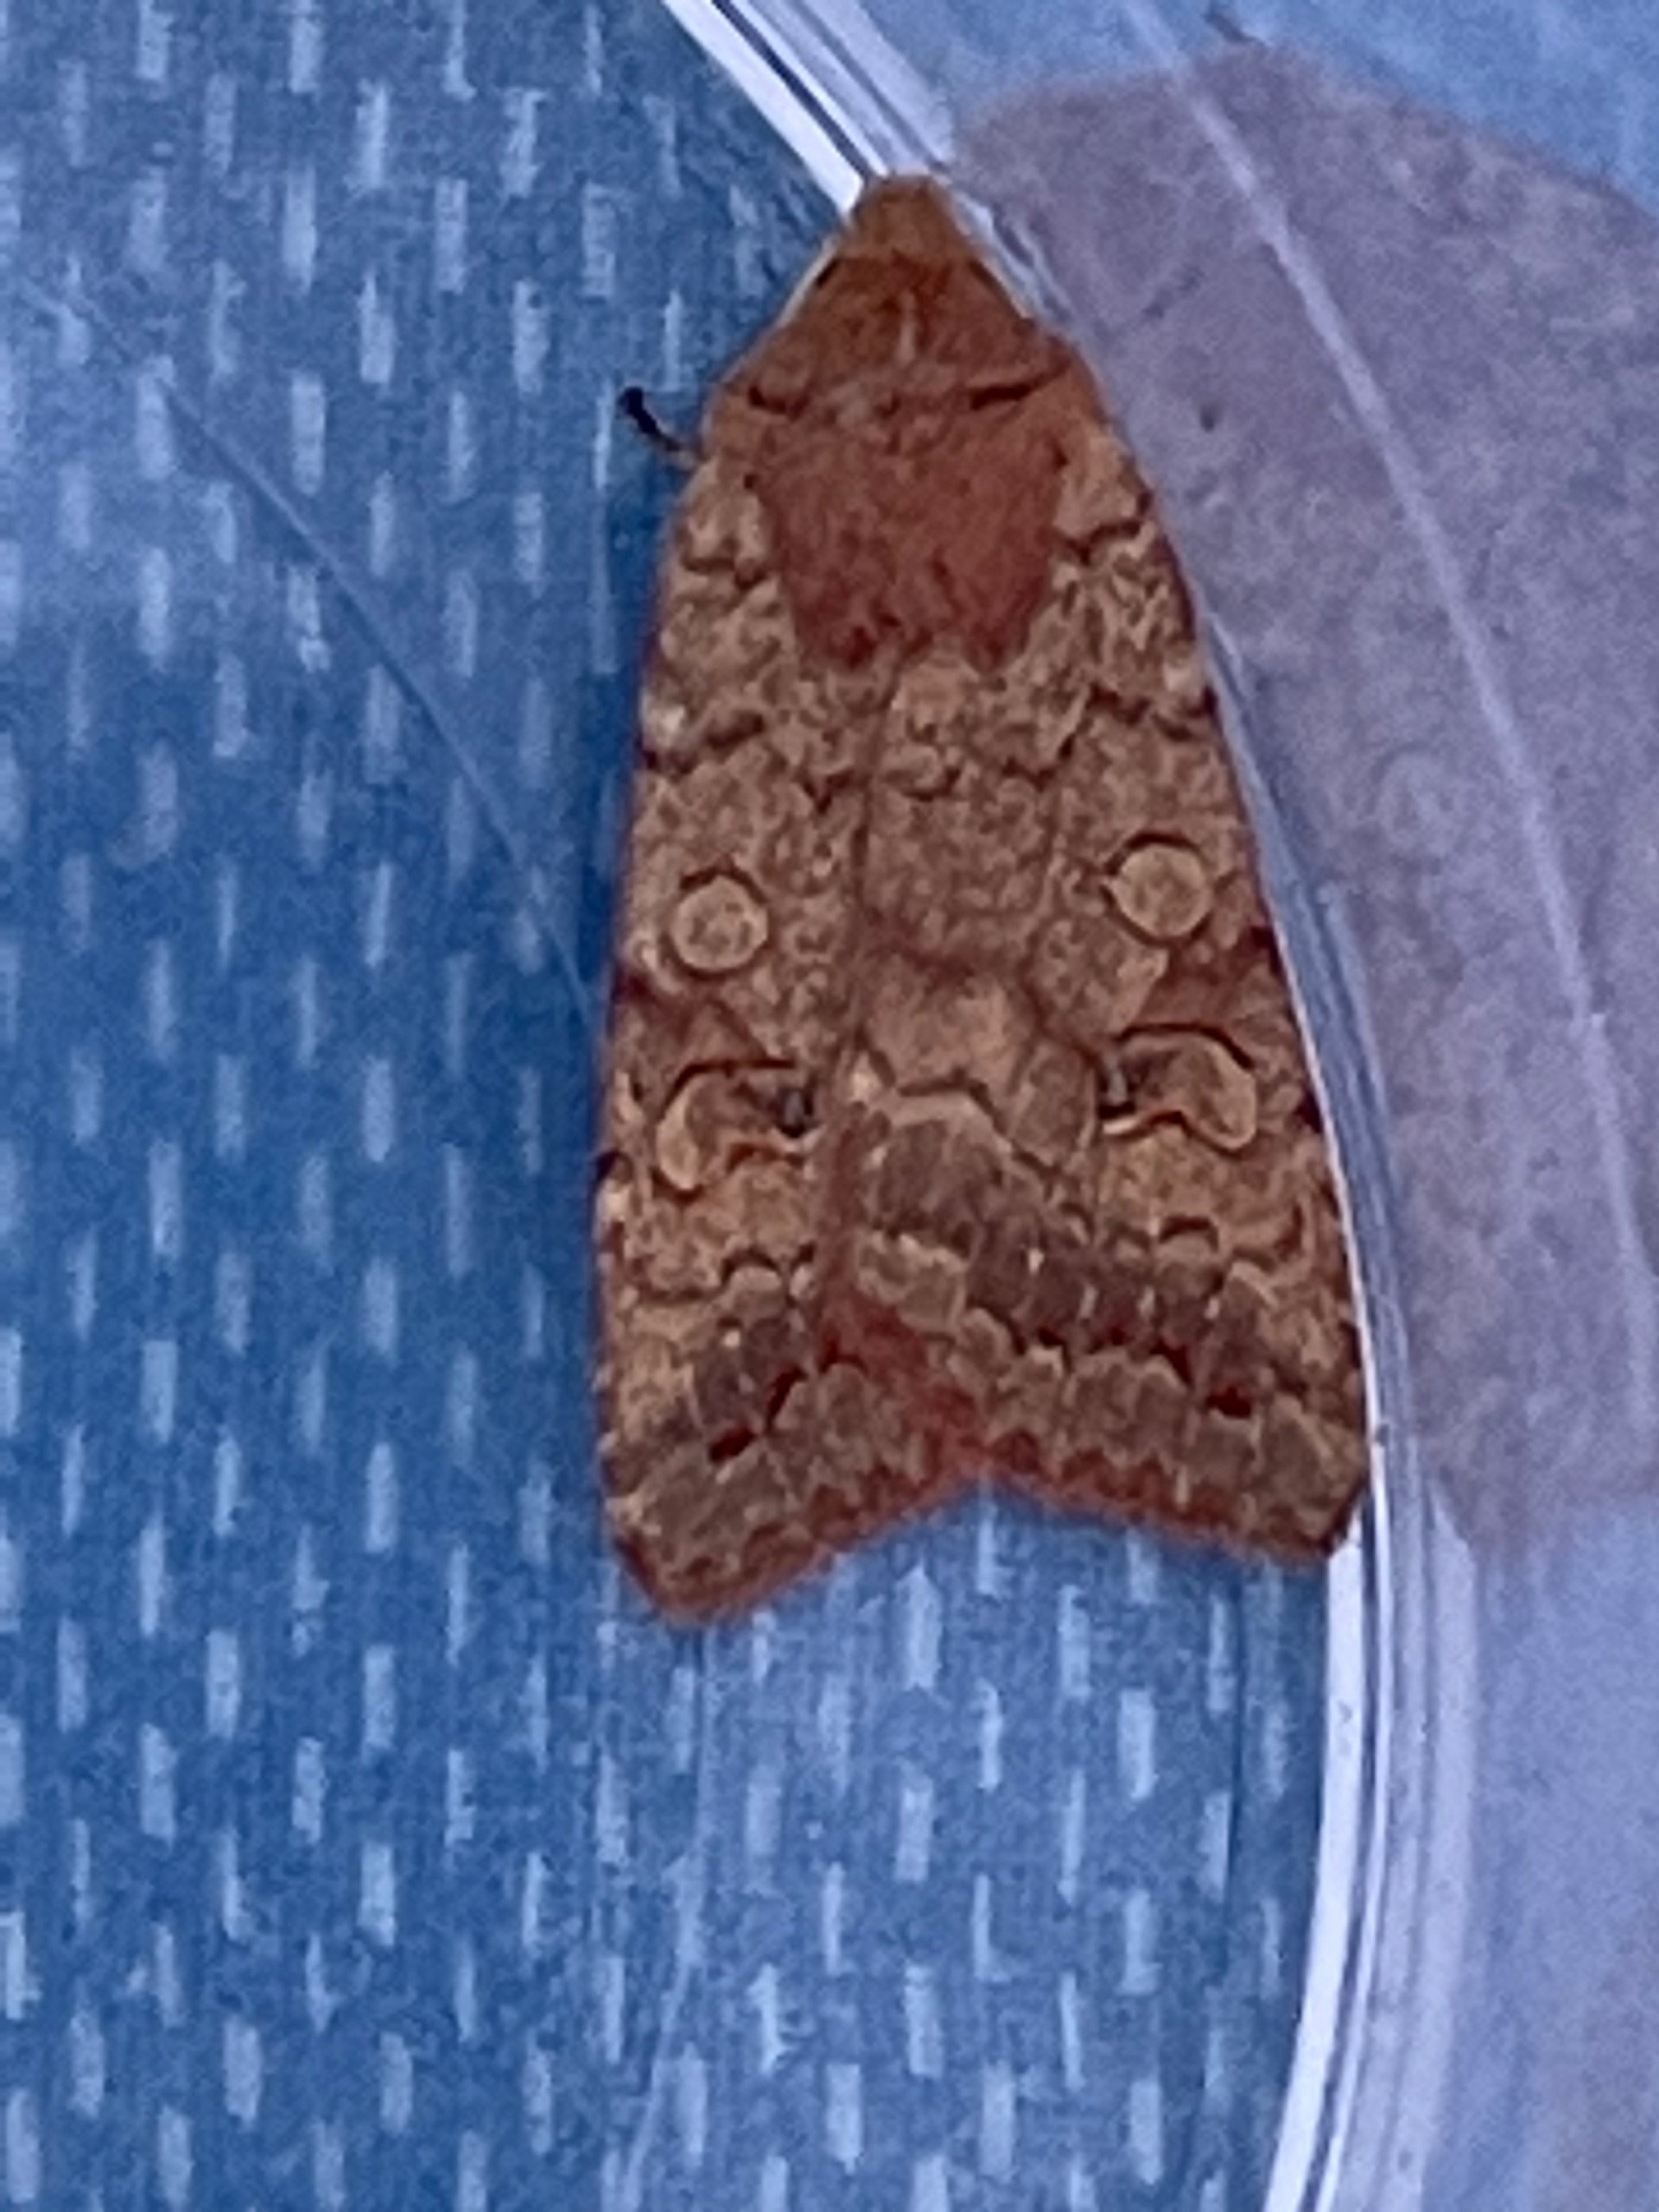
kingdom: Animalia
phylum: Arthropoda
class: Insecta
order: Lepidoptera
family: Noctuidae
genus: Sunira
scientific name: Sunira circellaris
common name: Cirkel-jordfarveugle
